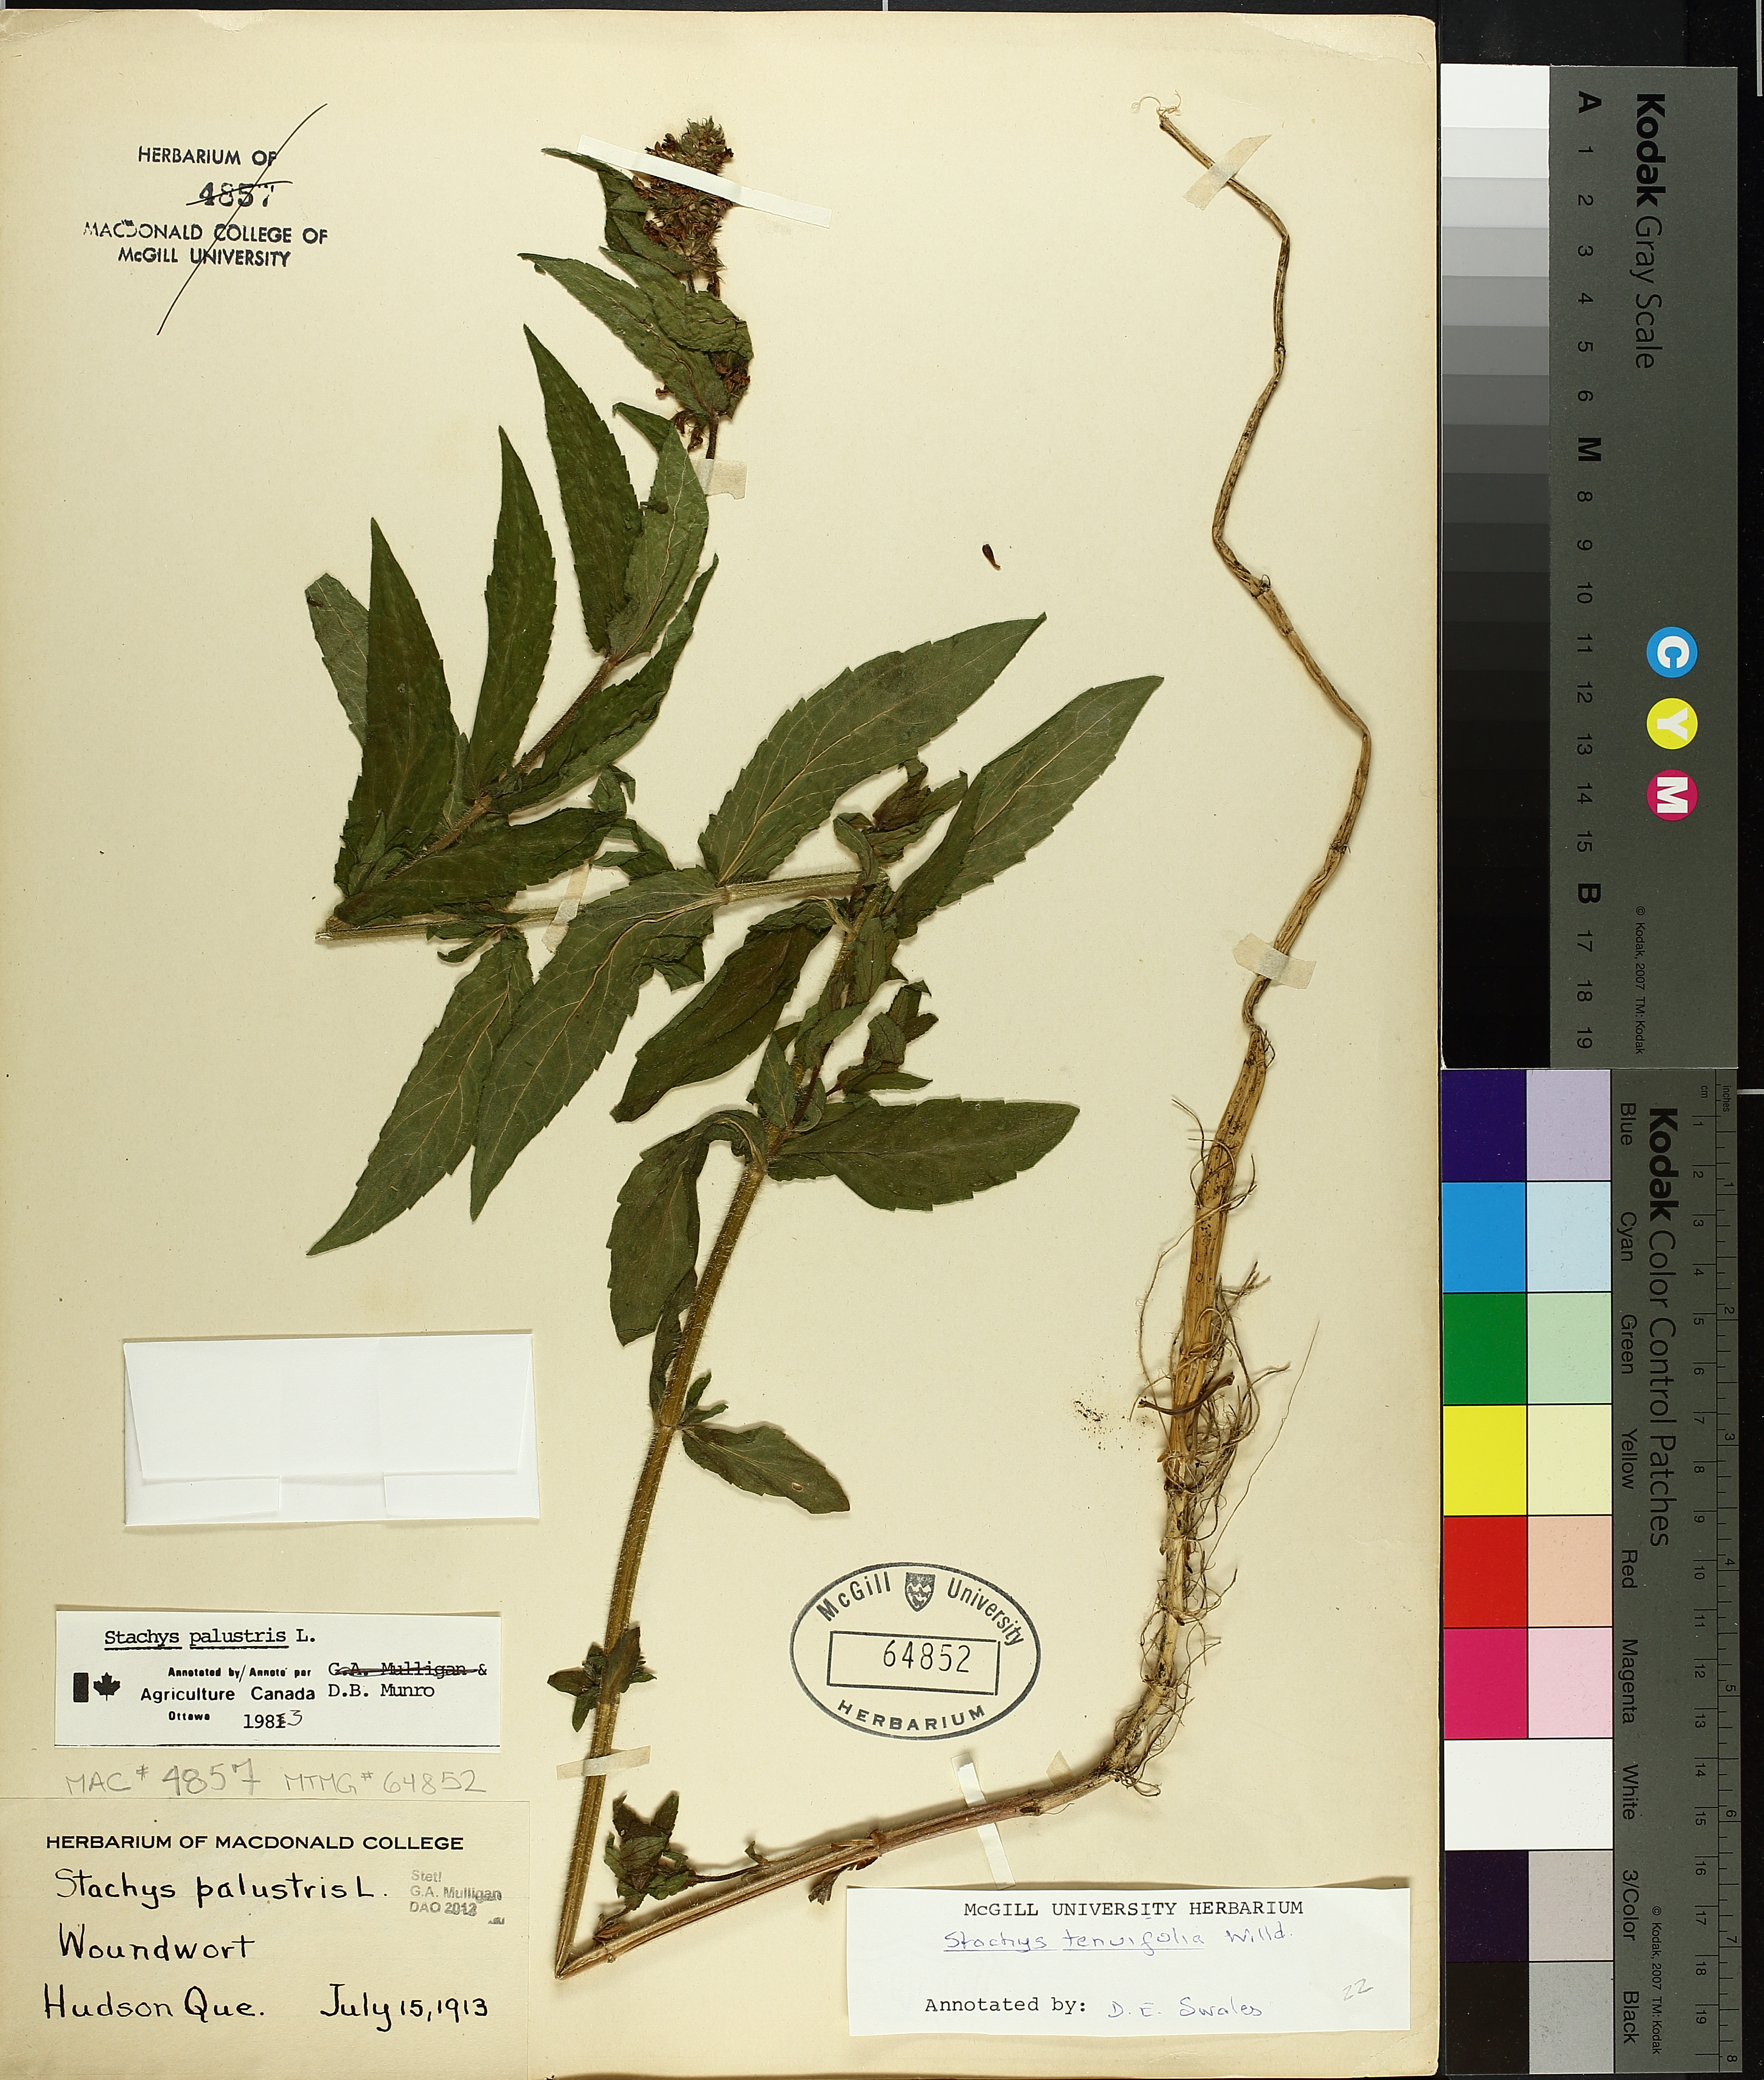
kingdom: Plantae
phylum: Tracheophyta
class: Magnoliopsida
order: Lamiales
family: Lamiaceae
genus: Stachys
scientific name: Stachys palustris
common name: Marsh woundwort
